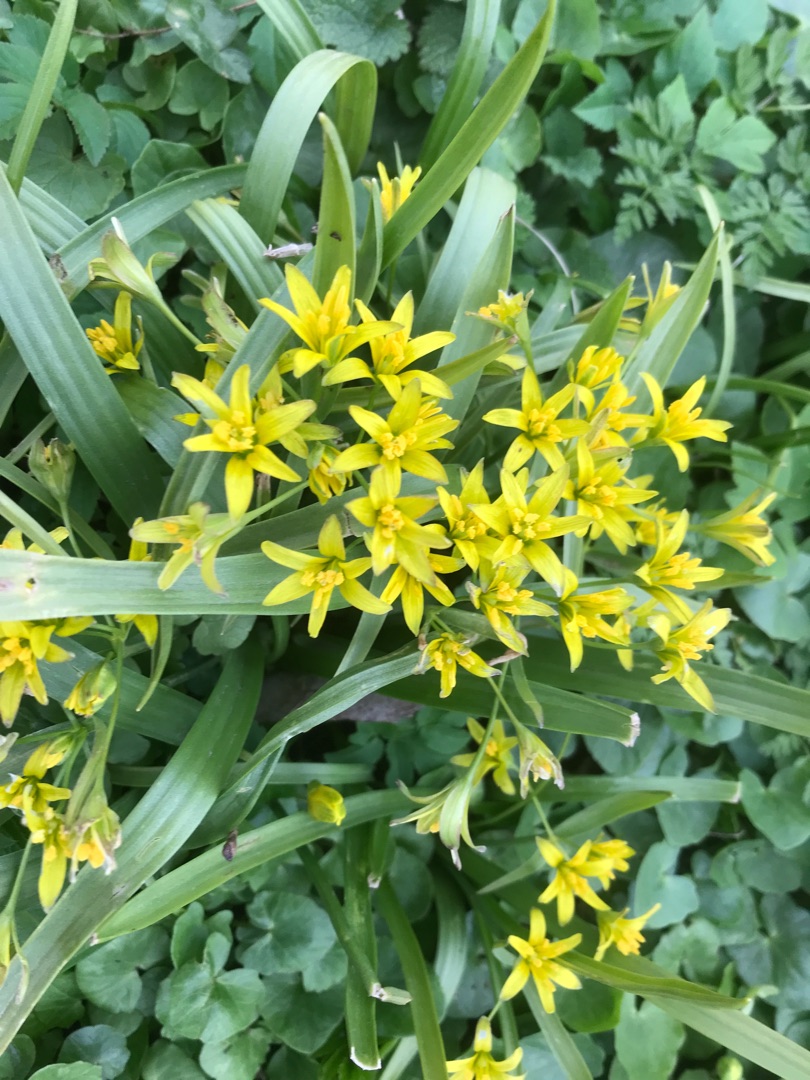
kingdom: Plantae
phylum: Tracheophyta
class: Liliopsida
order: Liliales
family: Liliaceae
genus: Gagea
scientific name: Gagea lutea
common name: Almindelig guldstjerne
